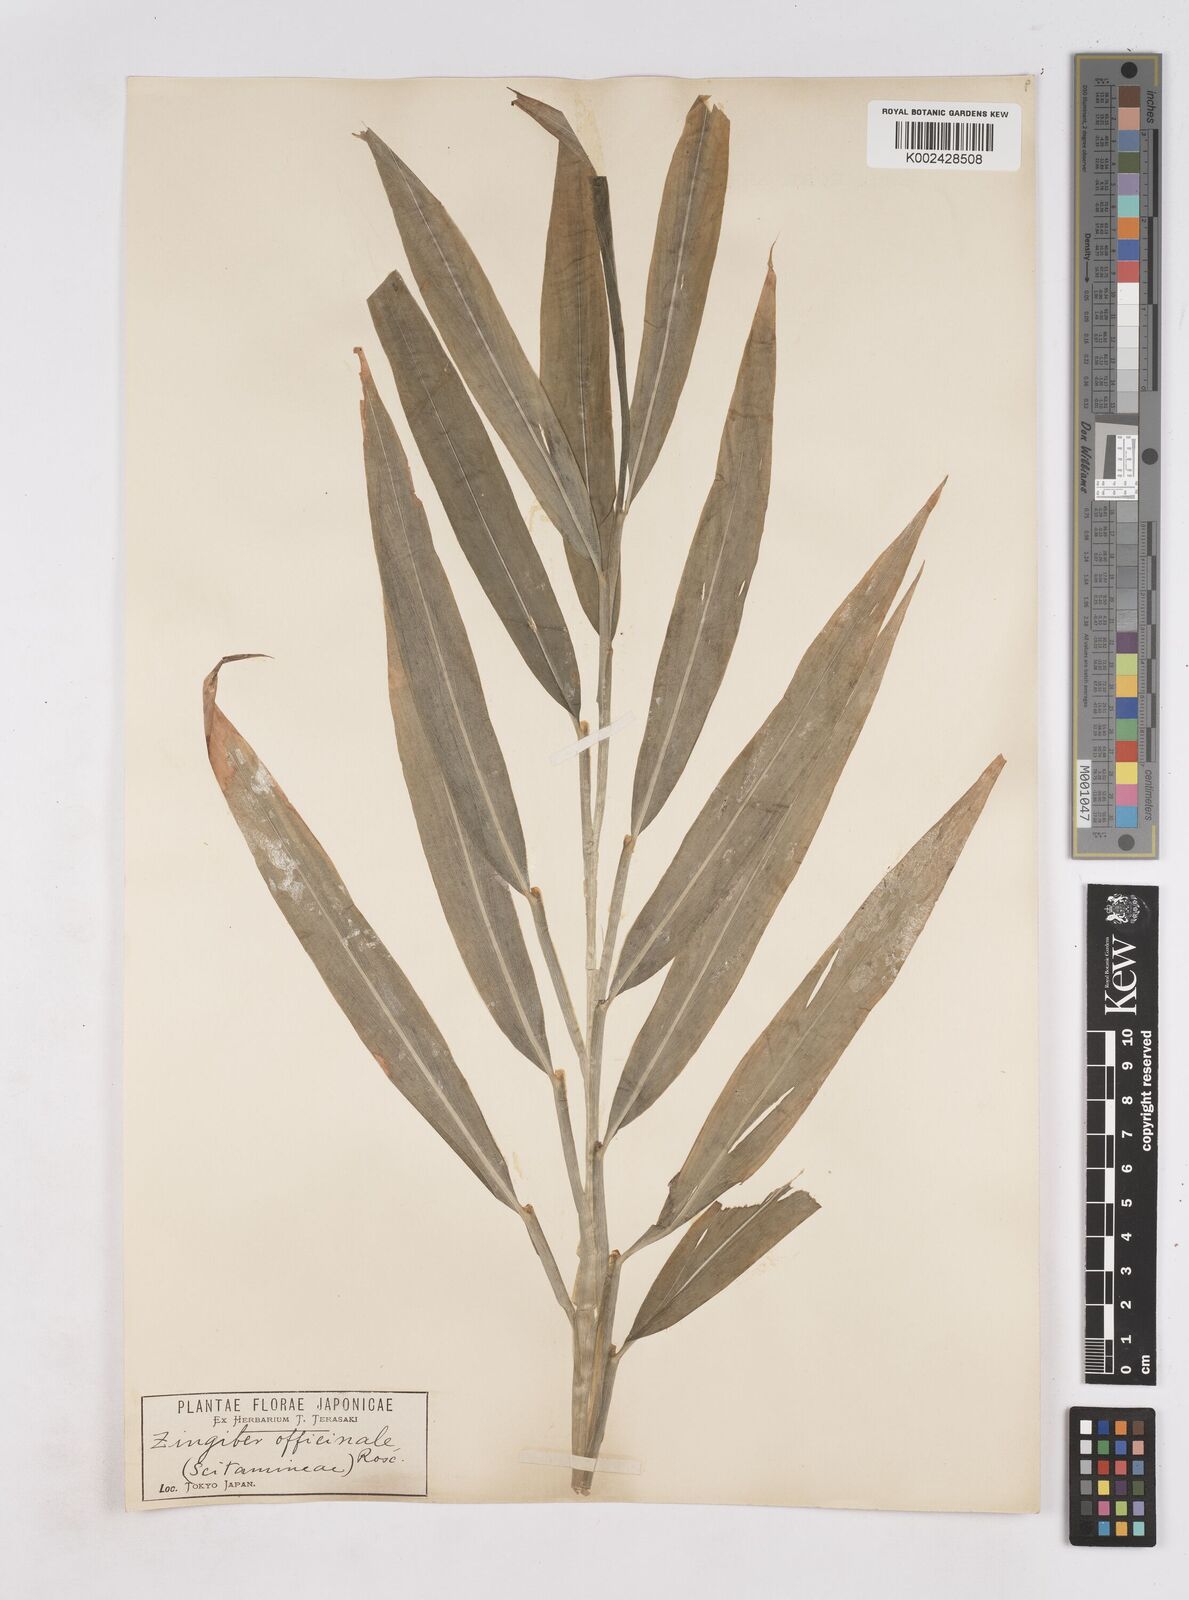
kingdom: Plantae
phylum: Tracheophyta
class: Liliopsida
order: Zingiberales
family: Zingiberaceae
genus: Zingiber
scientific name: Zingiber officinale
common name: Ginger
